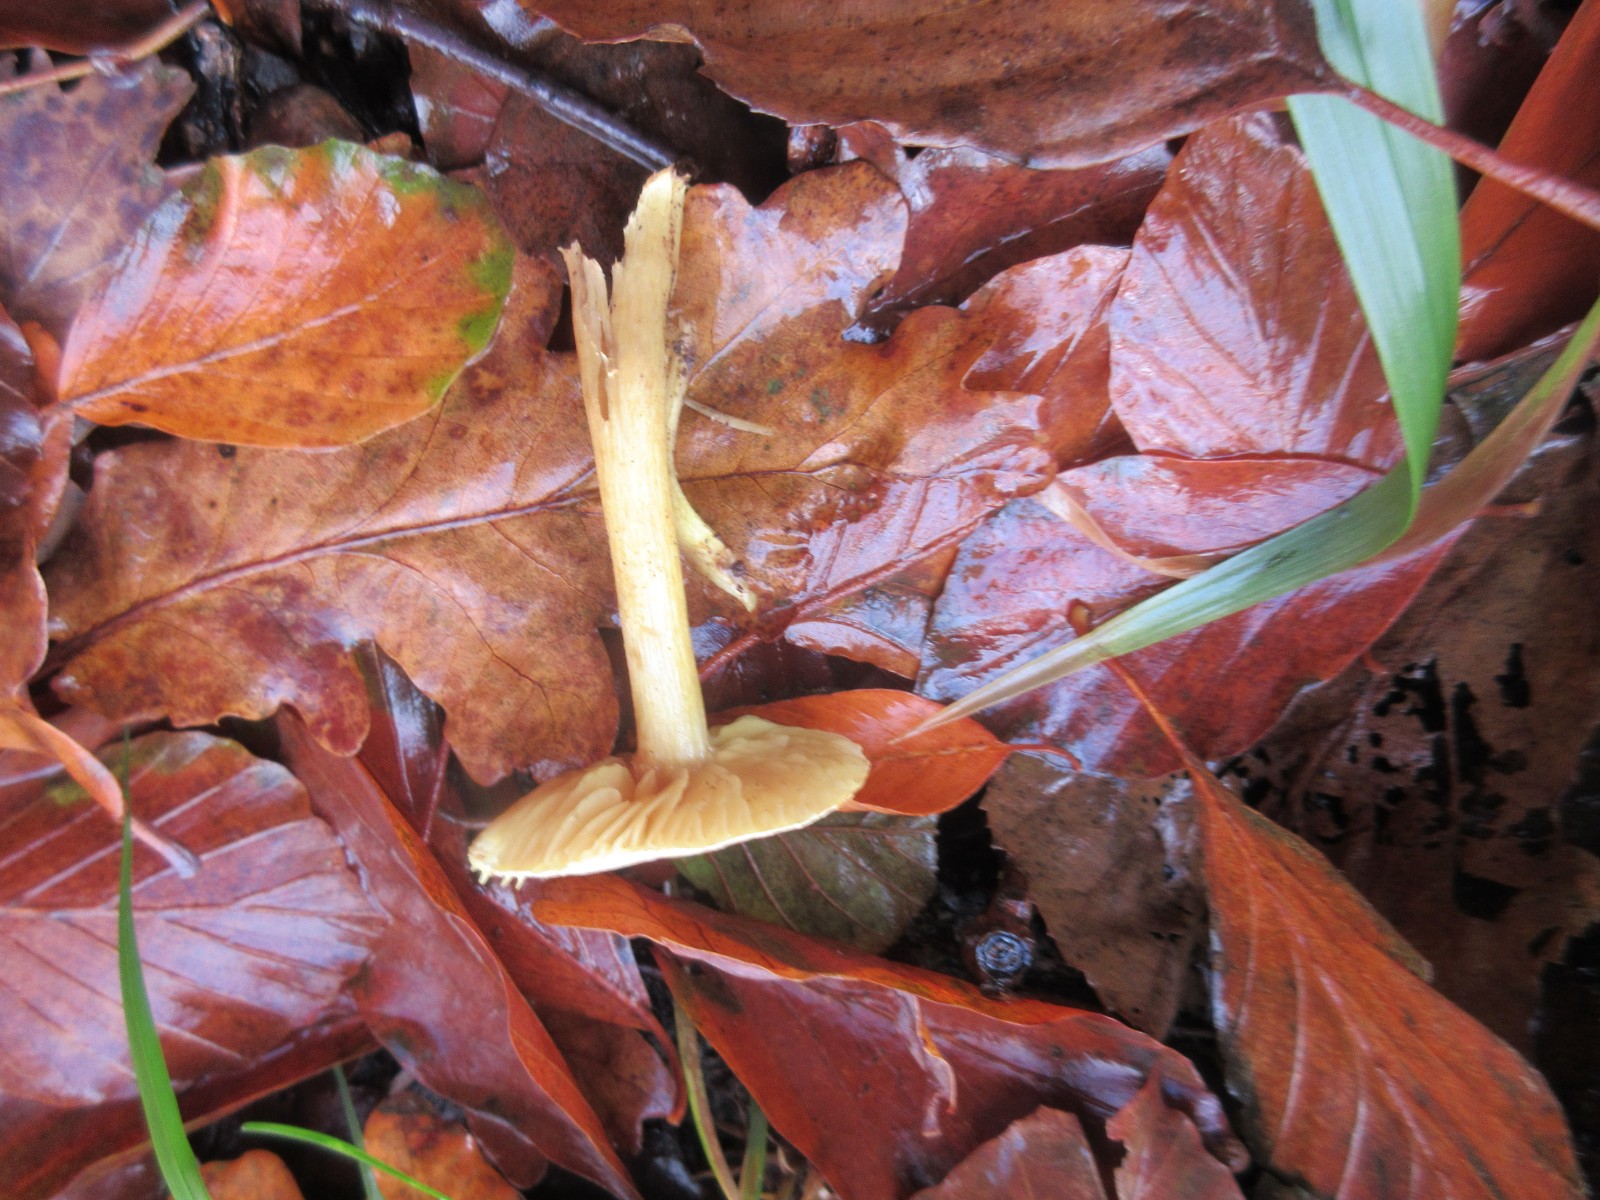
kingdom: Fungi
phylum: Basidiomycota
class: Agaricomycetes
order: Agaricales
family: Tricholomataceae
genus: Tricholoma
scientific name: Tricholoma sulphureum
